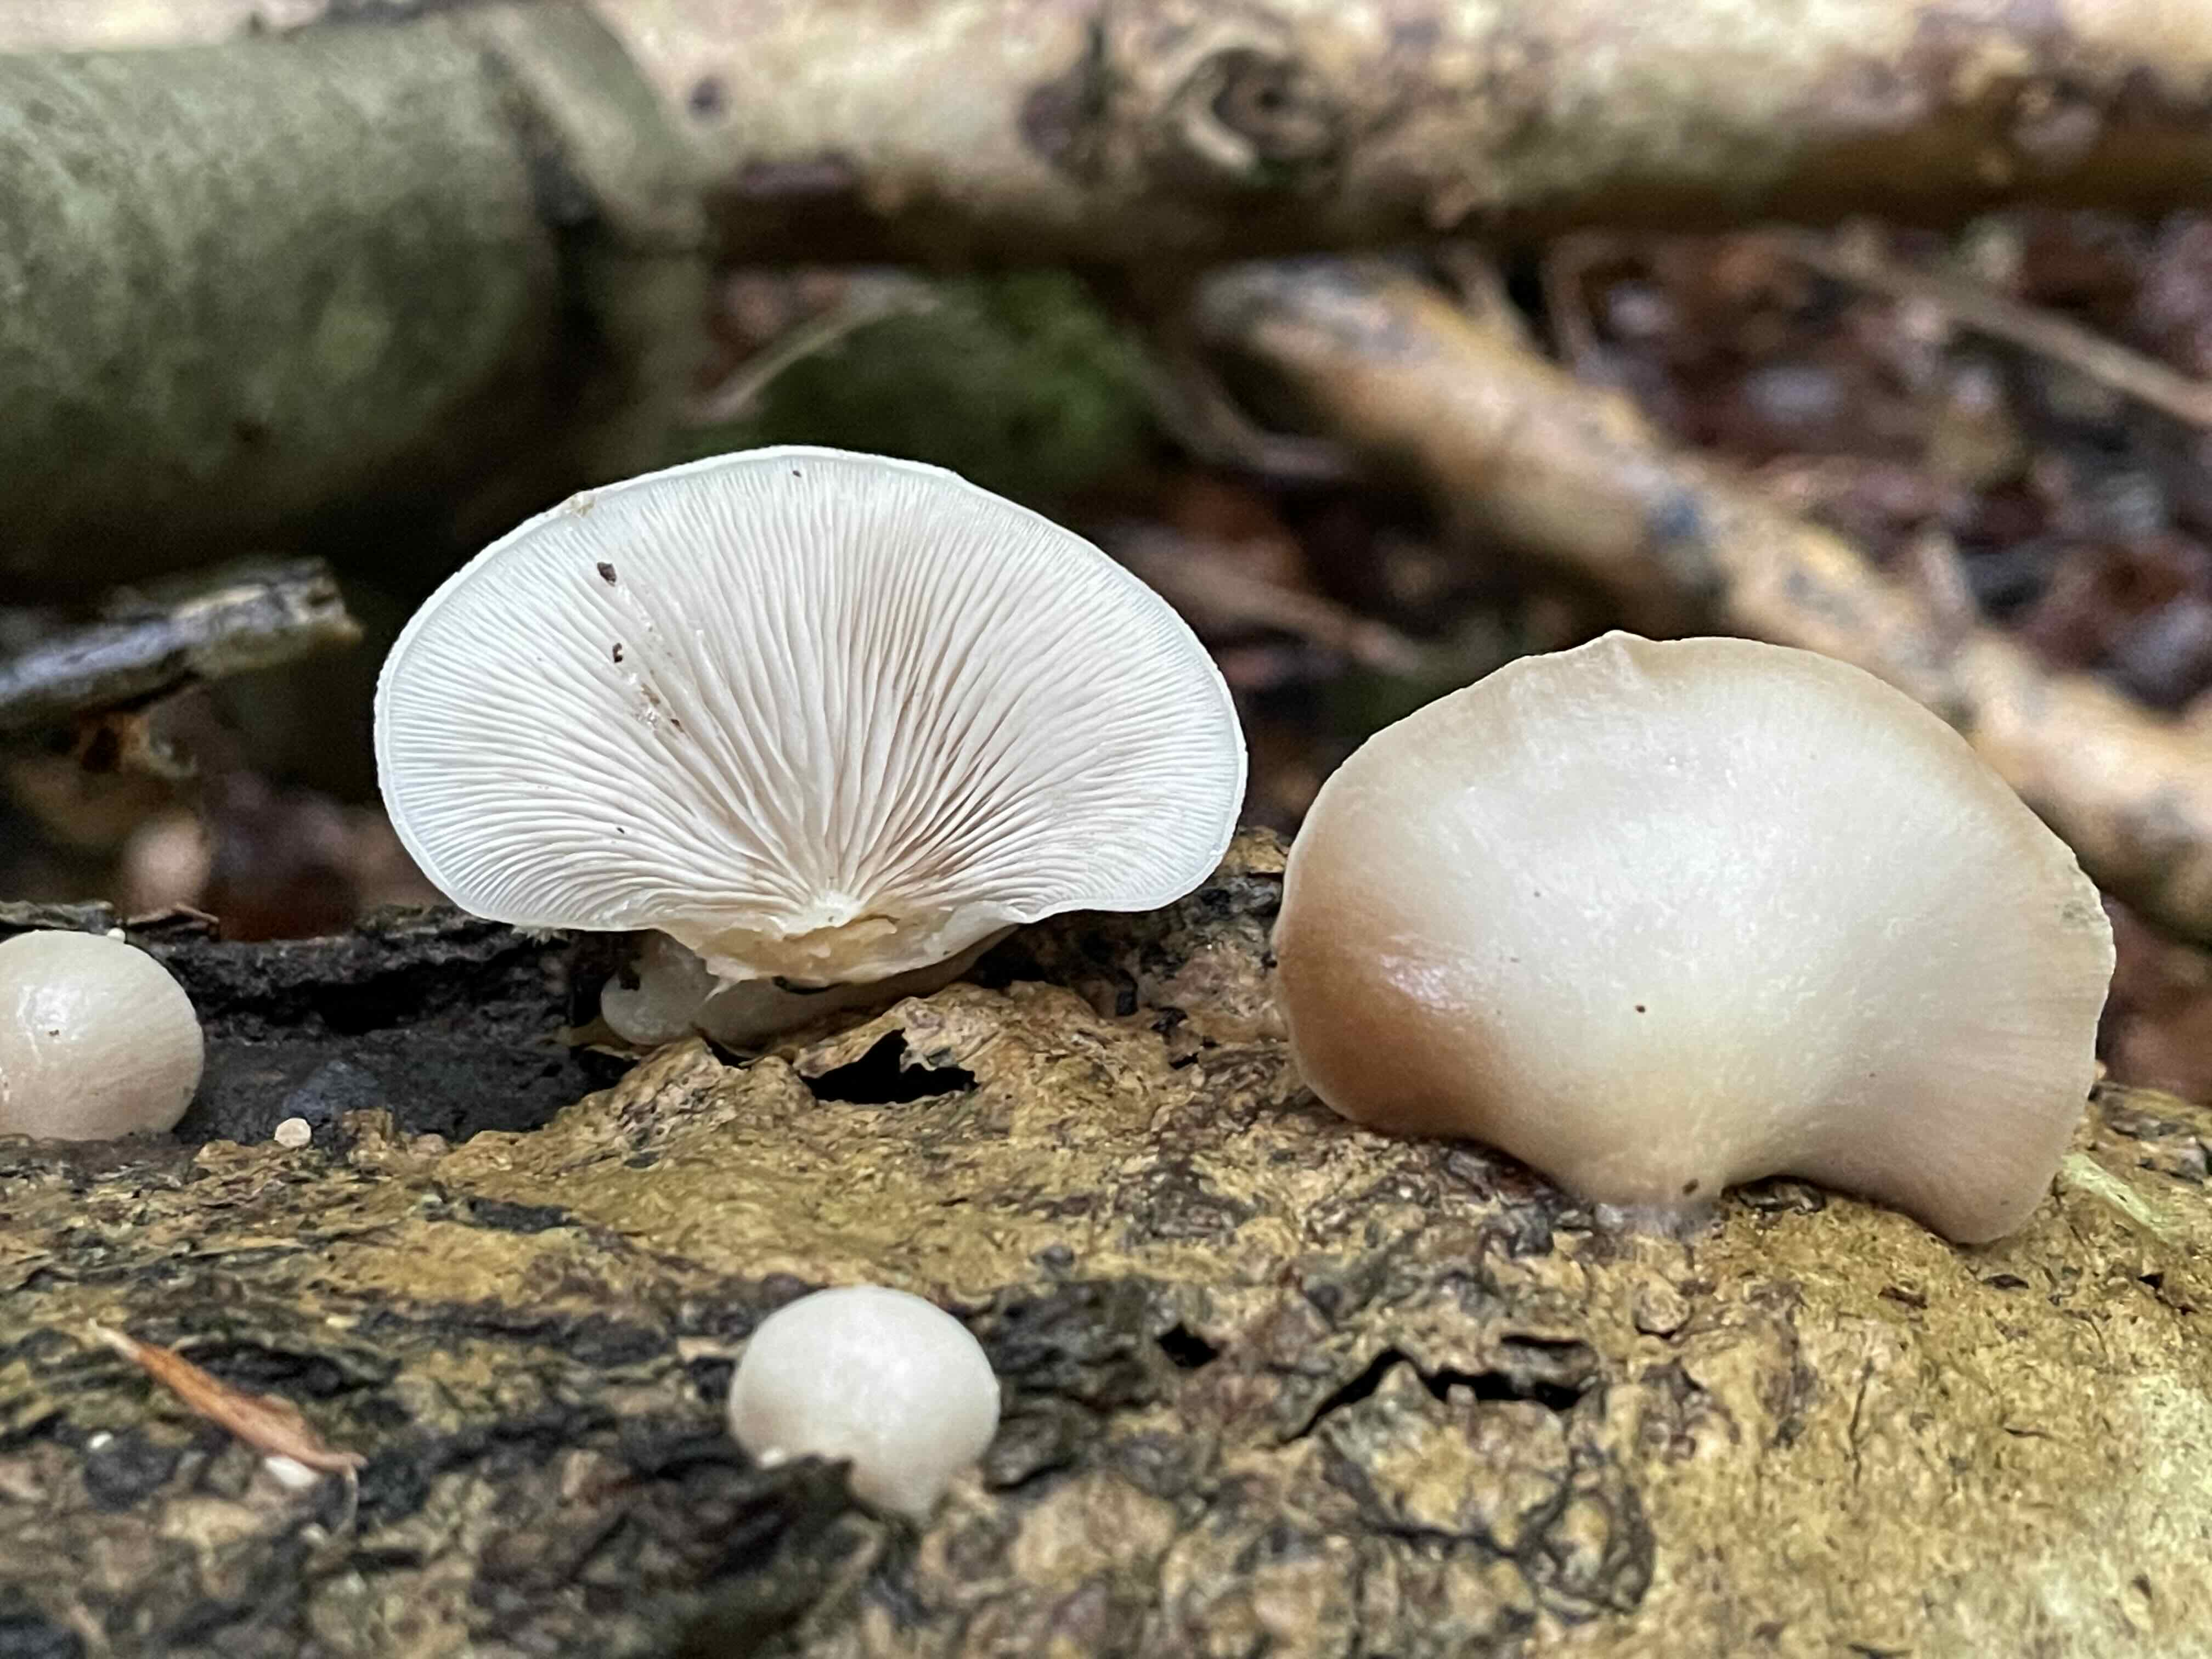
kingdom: Fungi
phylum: Basidiomycota
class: Agaricomycetes
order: Agaricales
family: Crepidotaceae
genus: Crepidotus
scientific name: Crepidotus mollis
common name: blød muslingesvamp
